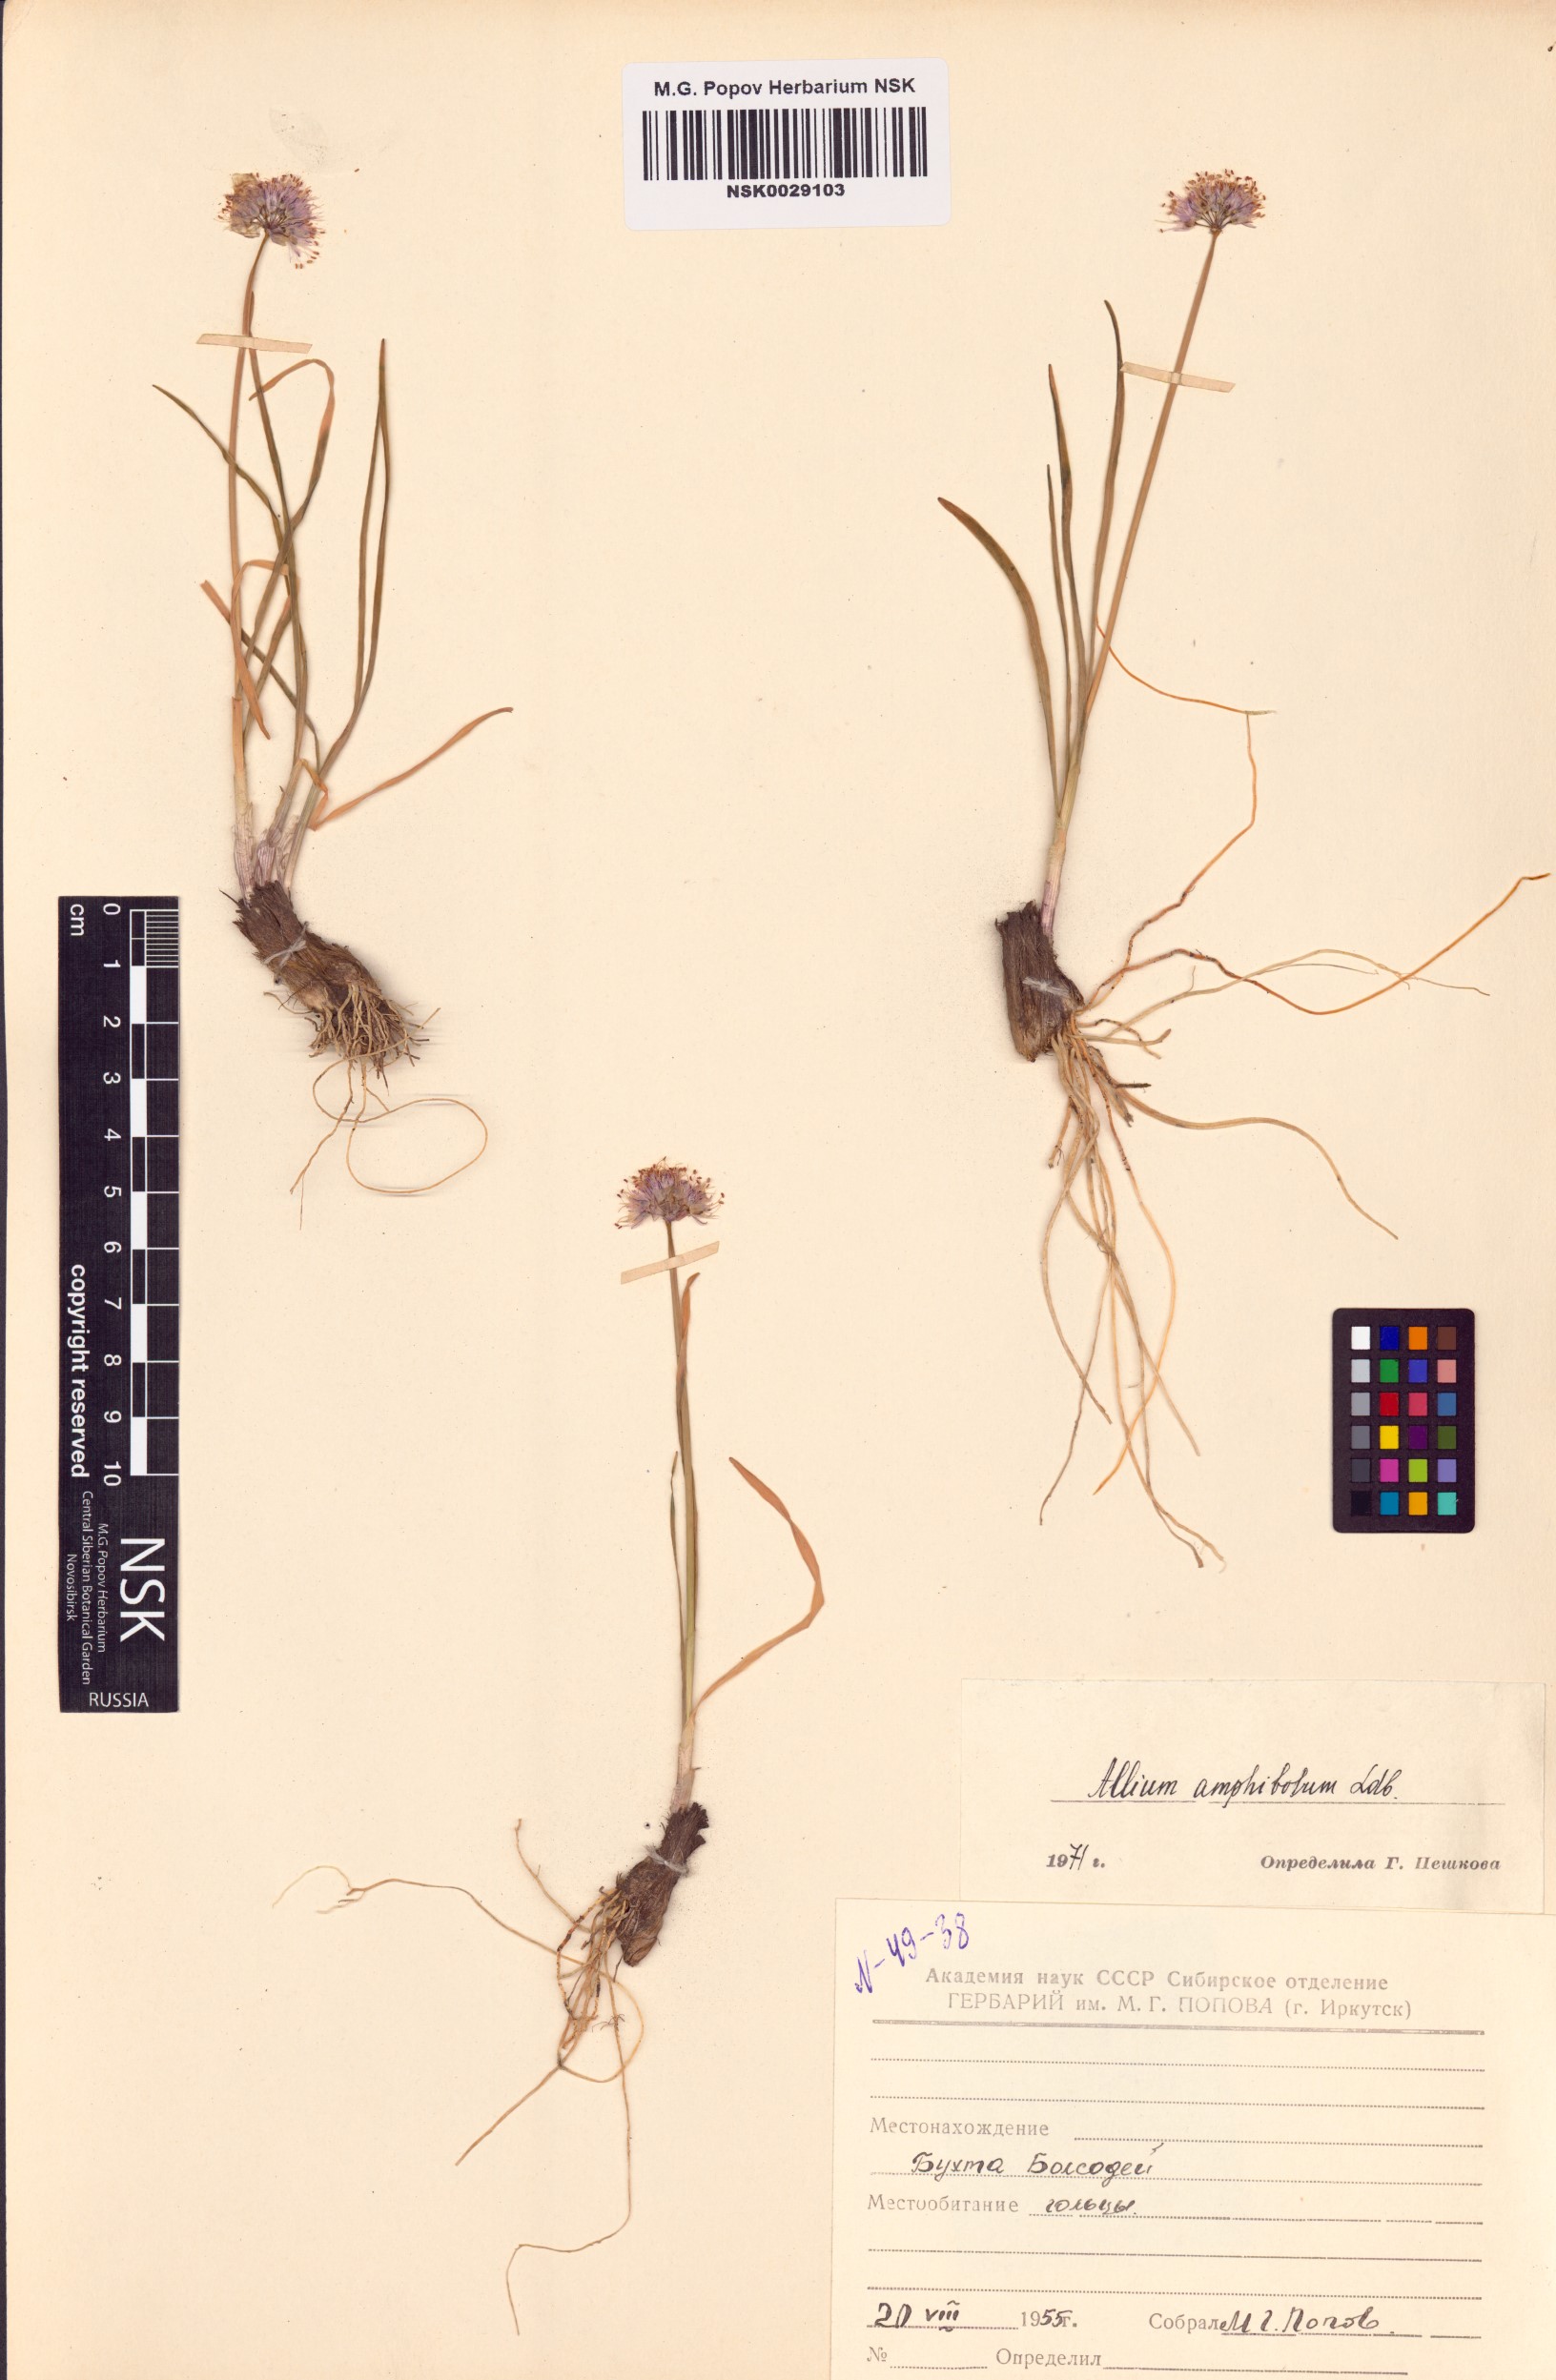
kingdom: Plantae
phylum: Tracheophyta
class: Liliopsida
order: Asparagales
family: Amaryllidaceae
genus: Allium
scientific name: Allium amphibolum
